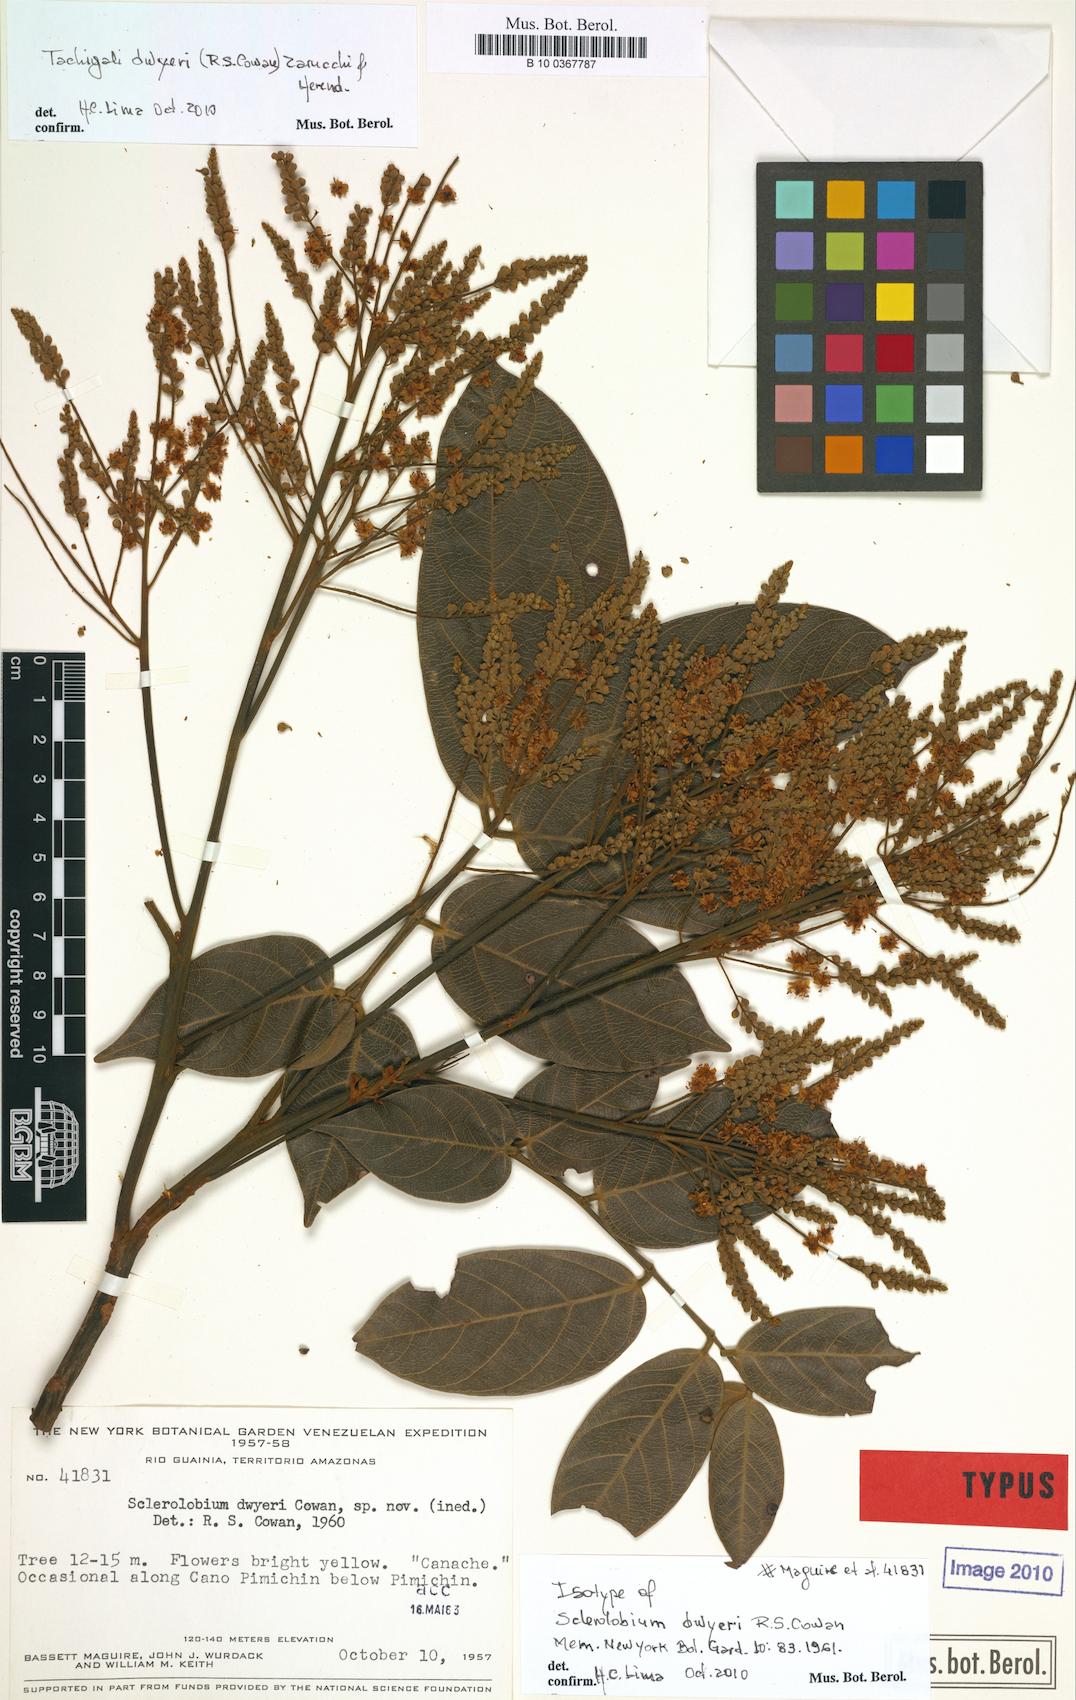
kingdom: Plantae
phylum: Tracheophyta
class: Magnoliopsida
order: Fabales
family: Fabaceae
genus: Tachigali
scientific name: Tachigali dwyeri
